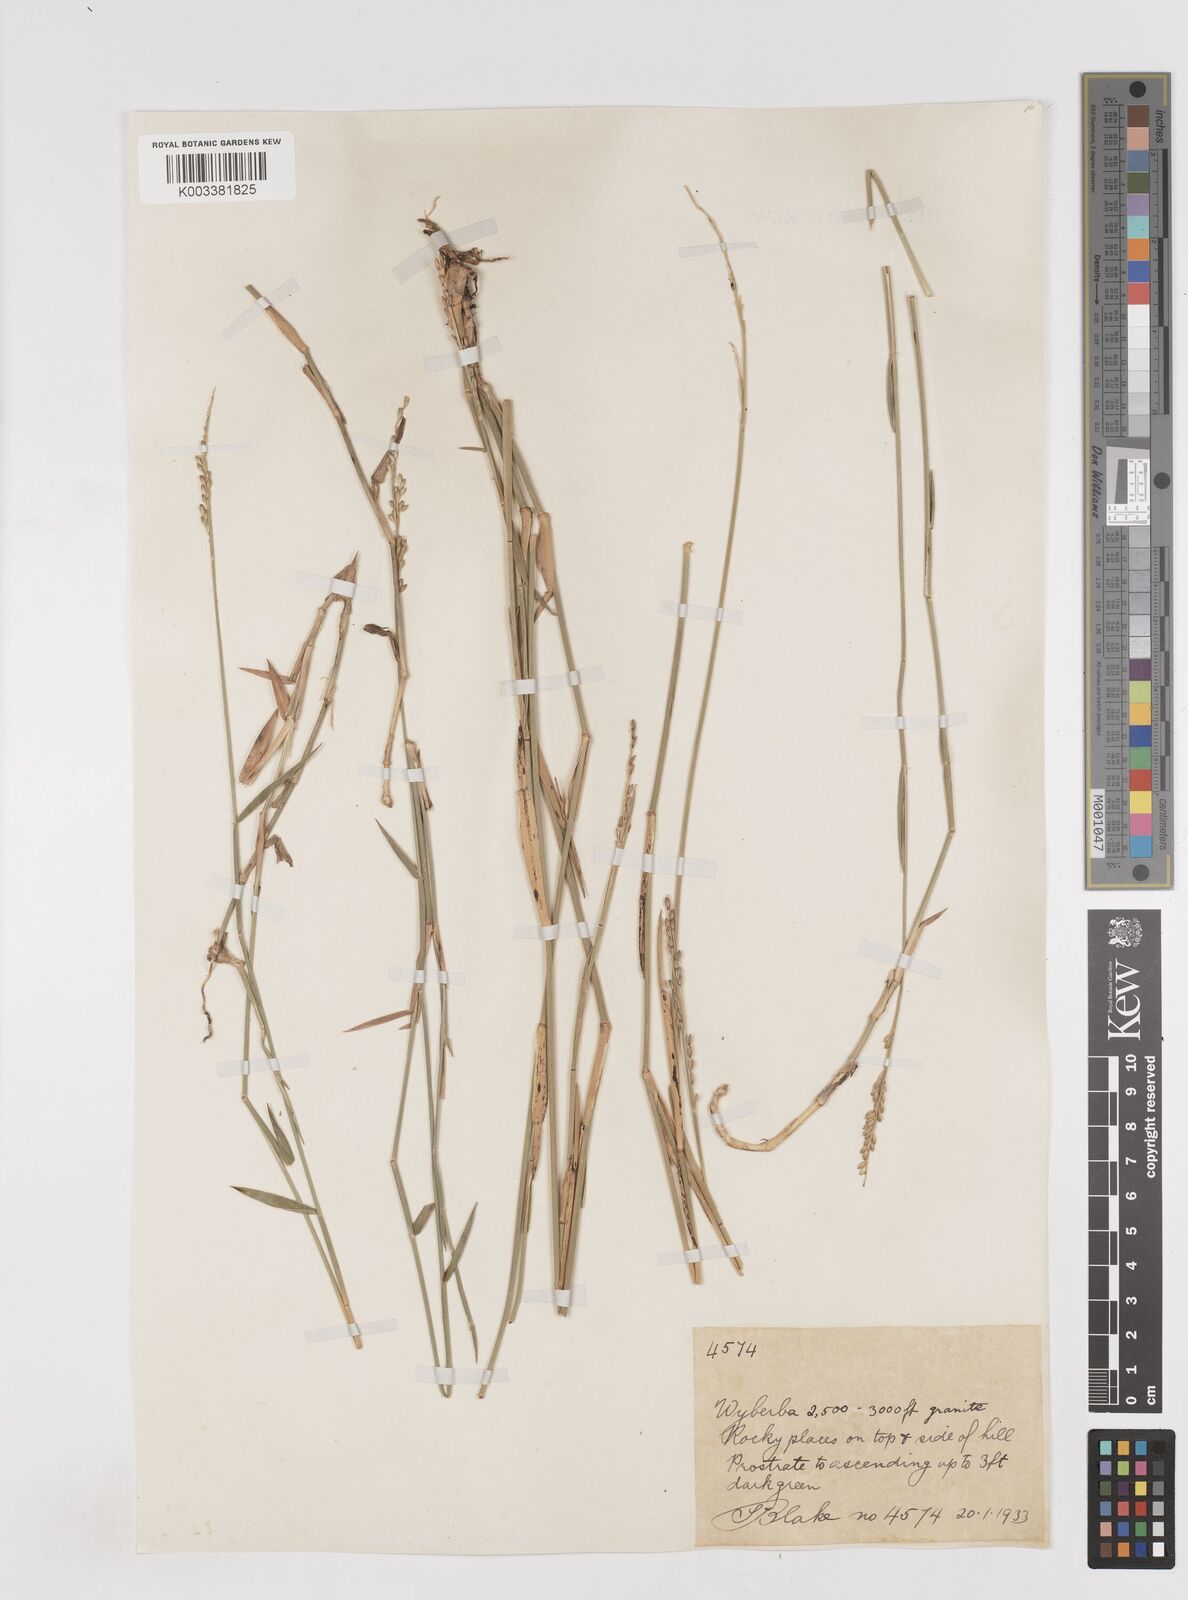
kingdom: Plantae
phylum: Tracheophyta
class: Liliopsida
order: Poales
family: Poaceae
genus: Entolasia
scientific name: Entolasia
